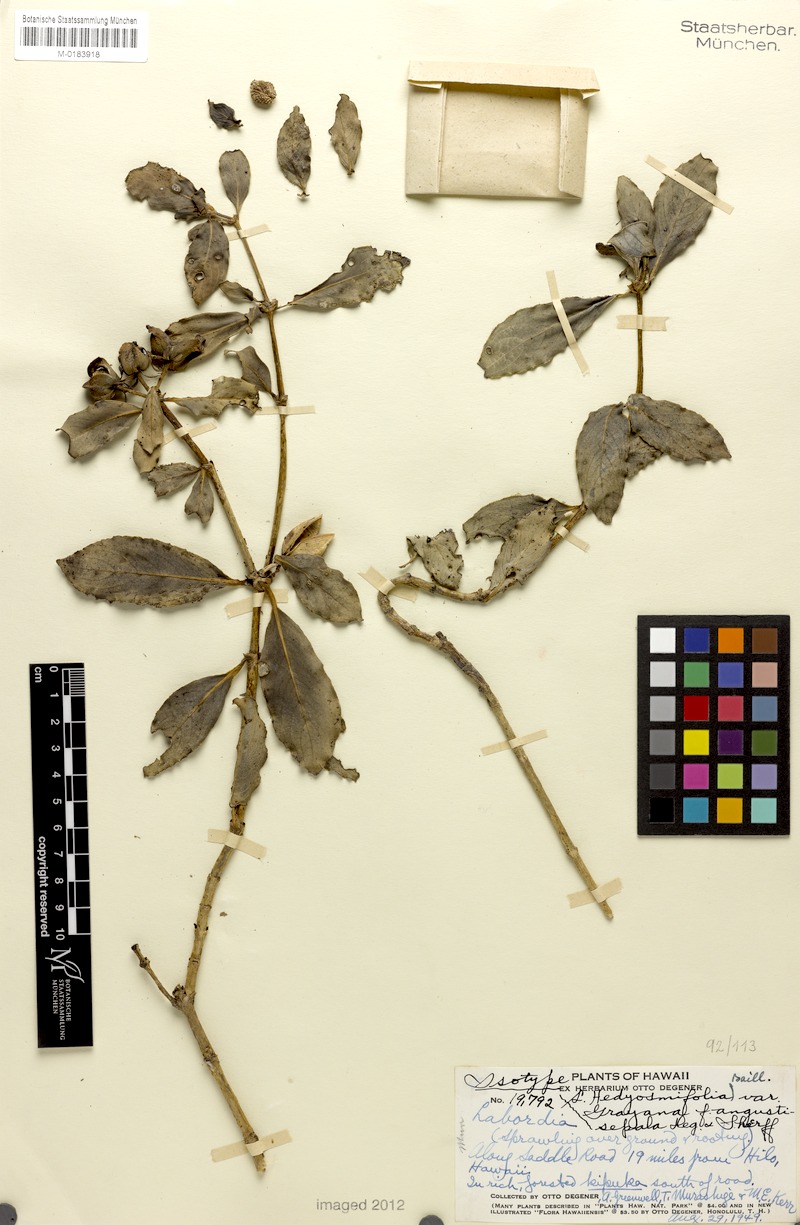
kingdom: Plantae
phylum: Tracheophyta
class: Magnoliopsida
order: Gentianales
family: Loganiaceae
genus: Geniostoma
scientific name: Geniostoma hedyosmifolium
